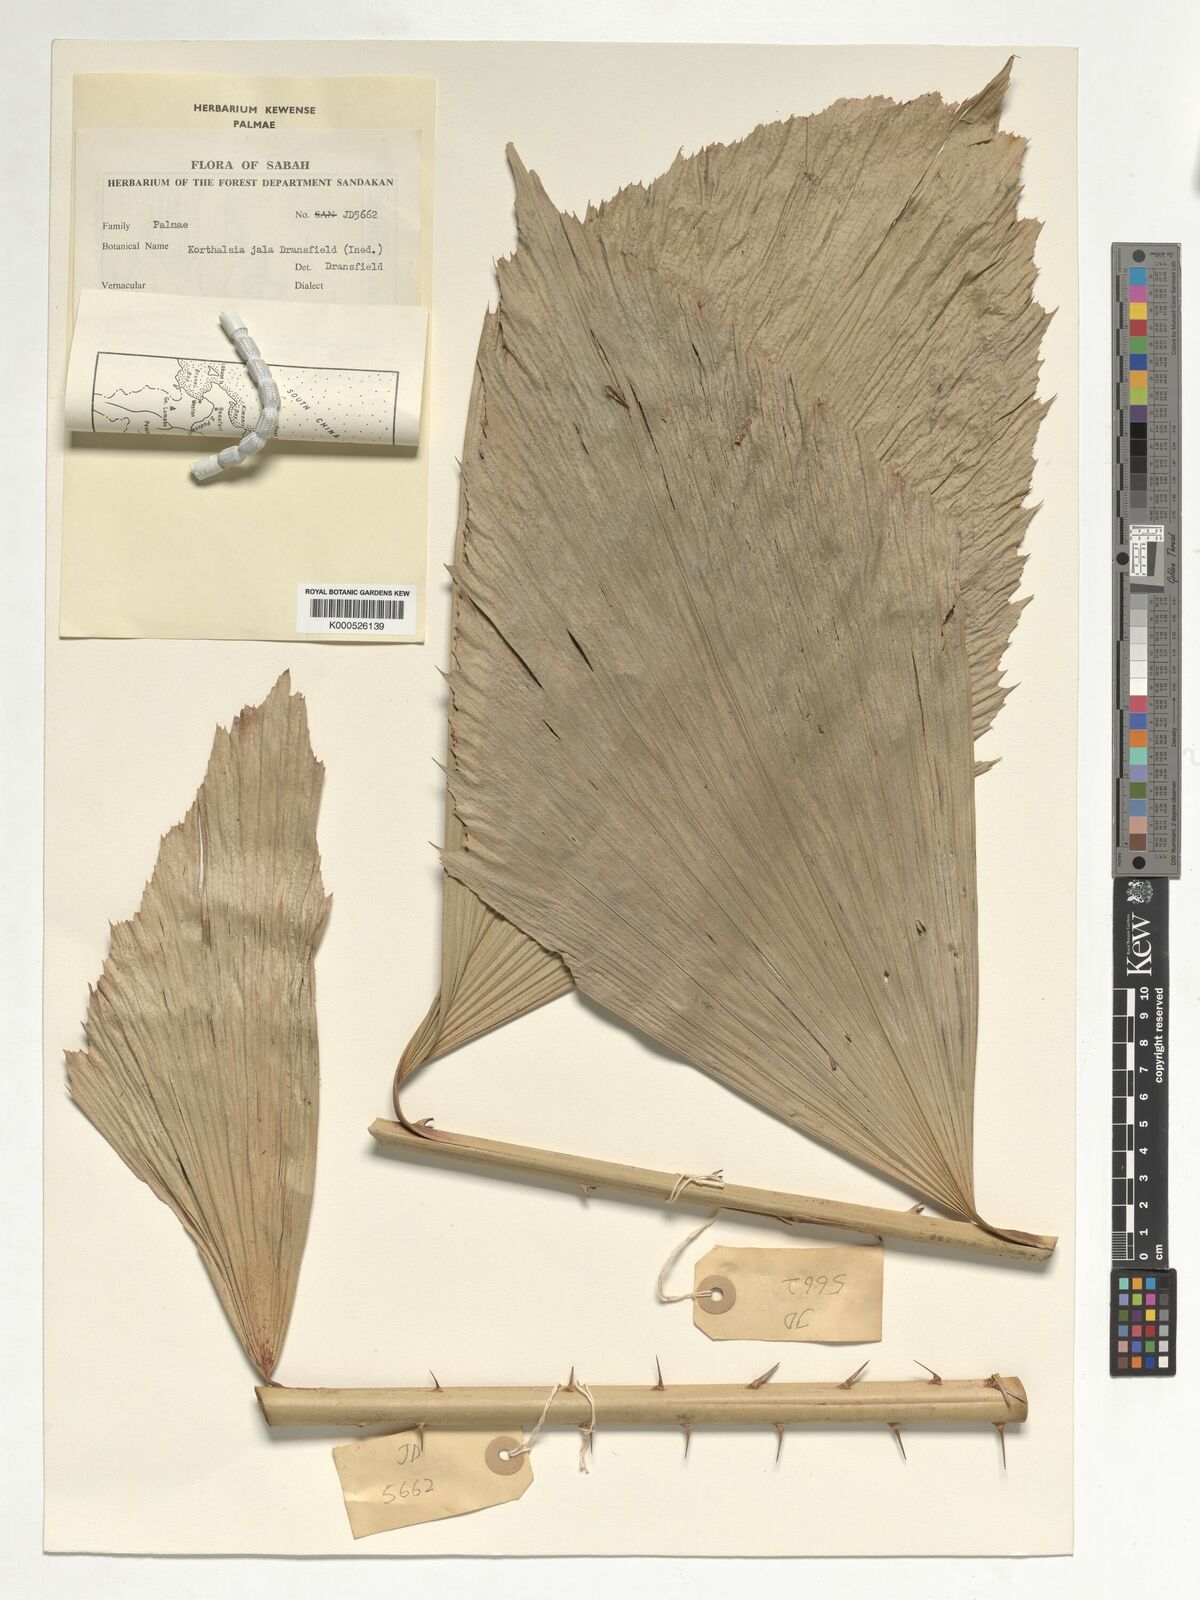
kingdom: Plantae
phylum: Tracheophyta
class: Liliopsida
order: Arecales
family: Arecaceae
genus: Korthalsia
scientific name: Korthalsia jala
